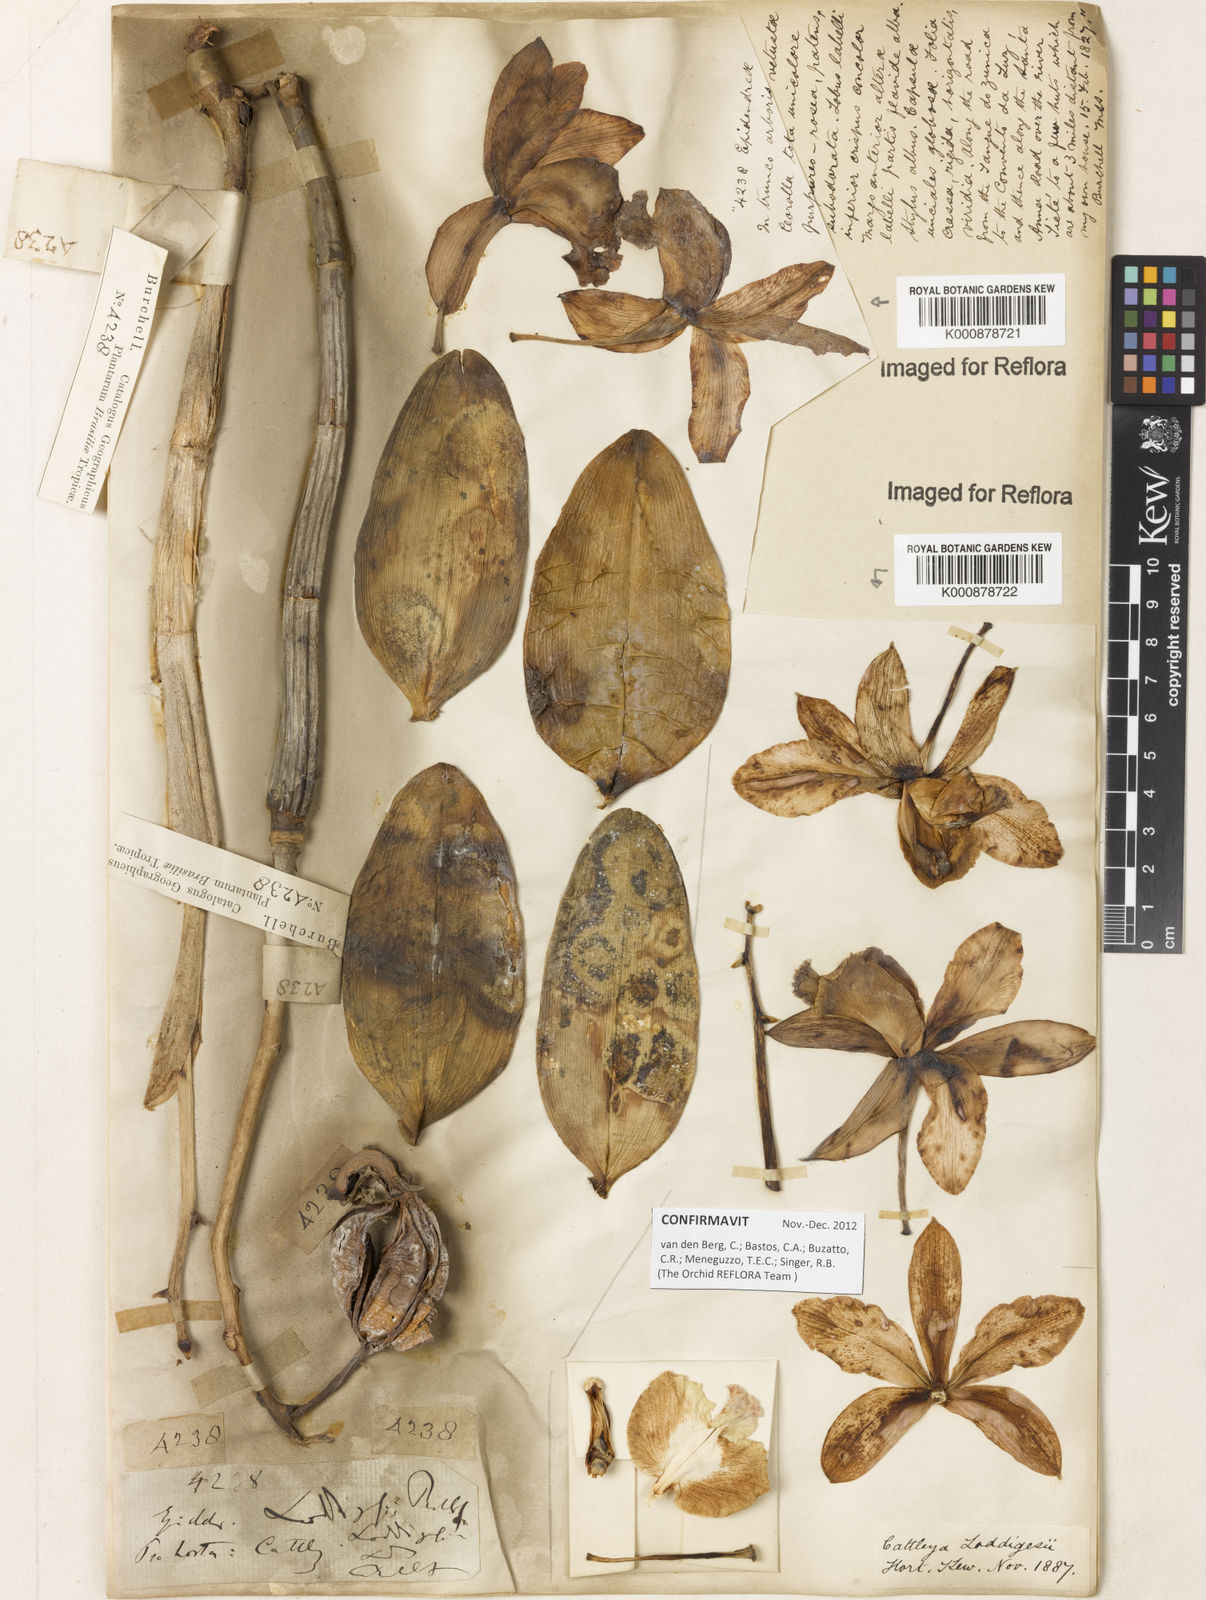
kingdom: Plantae
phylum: Tracheophyta
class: Liliopsida
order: Asparagales
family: Orchidaceae
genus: Cattleya
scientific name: Cattleya loddigesii
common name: Loddiges's cattleya
